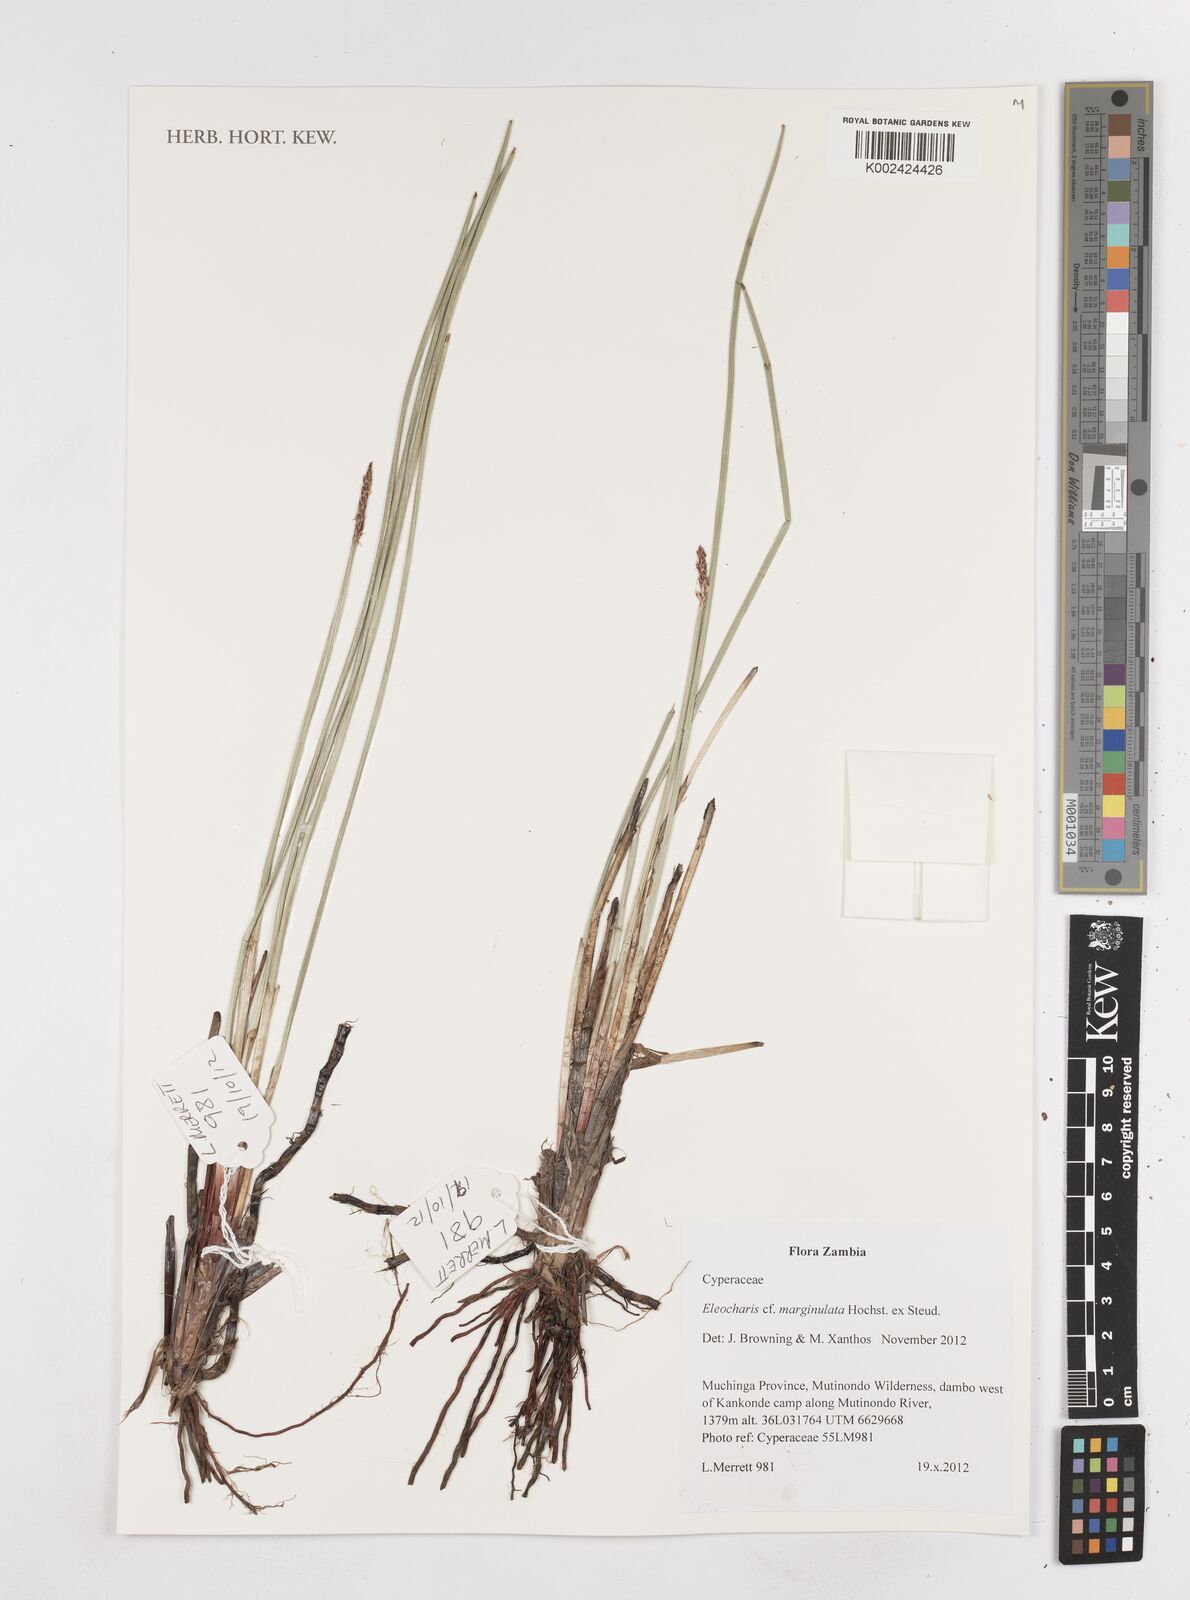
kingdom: Plantae
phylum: Tracheophyta
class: Liliopsida
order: Poales
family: Cyperaceae
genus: Eleocharis
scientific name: Eleocharis marginulata
